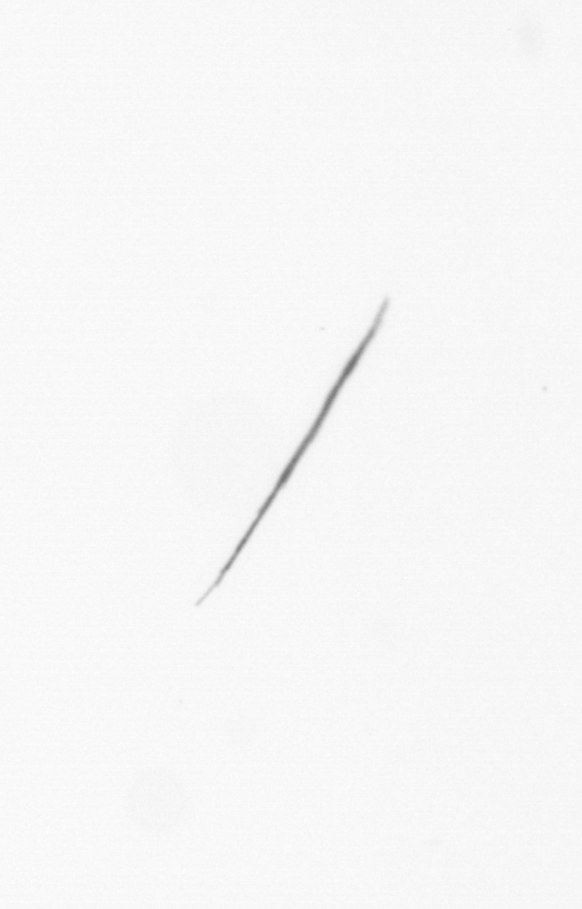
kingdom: Chromista
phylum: Ochrophyta
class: Bacillariophyceae
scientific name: Bacillariophyceae
